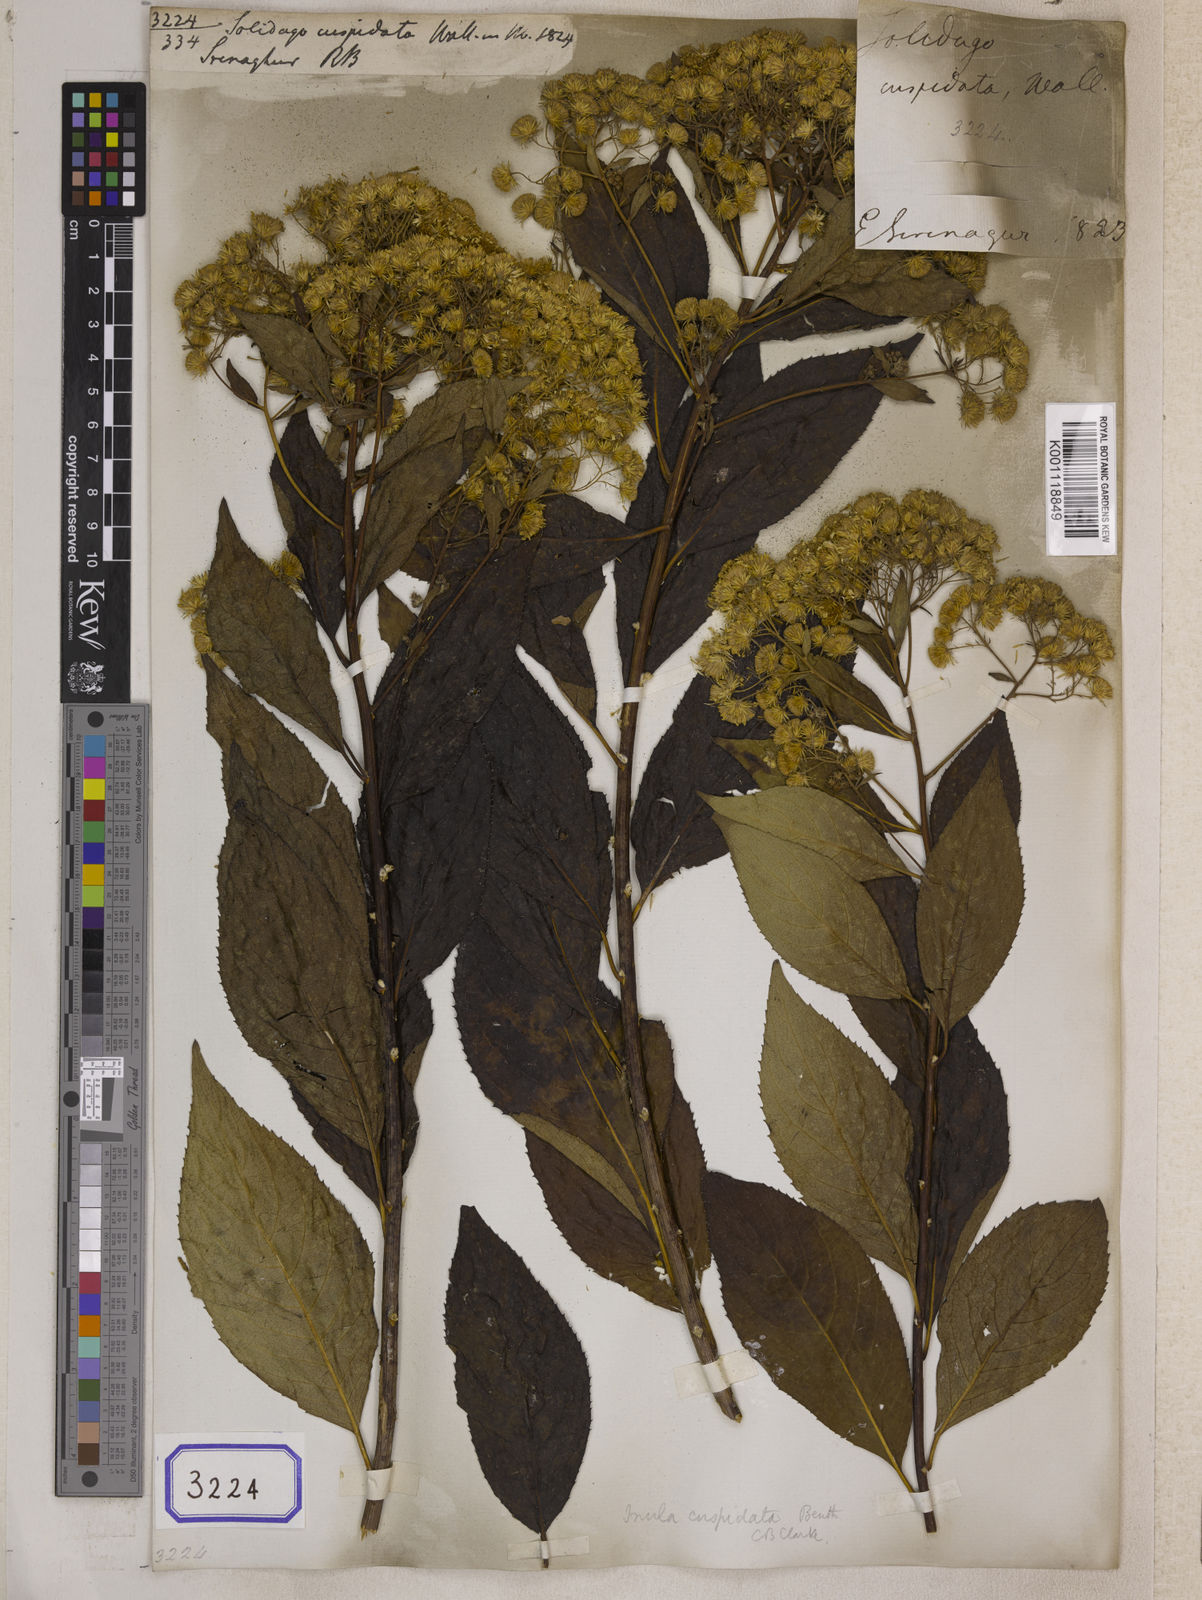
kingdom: Plantae
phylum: Tracheophyta
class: Magnoliopsida
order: Asterales
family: Asteraceae
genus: Duhaldea
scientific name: Duhaldea cuspidata
